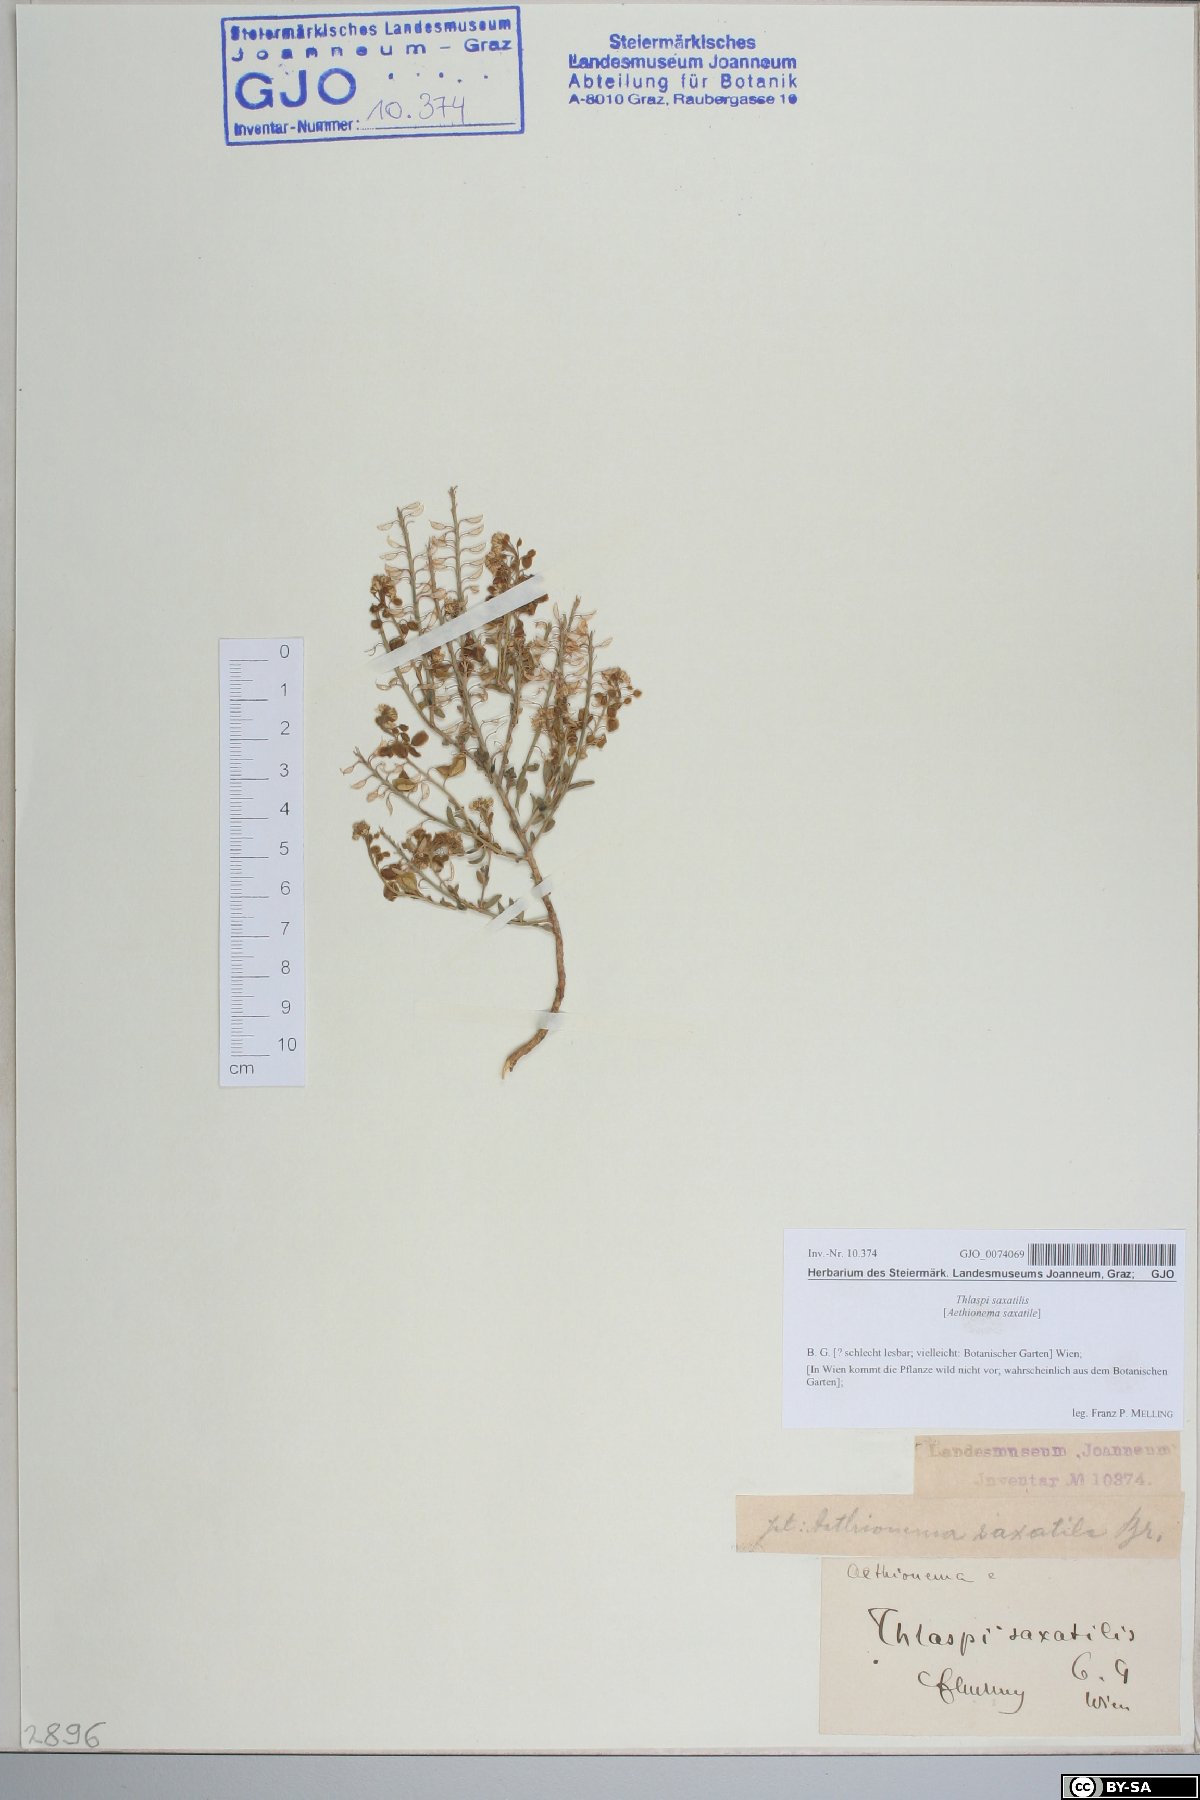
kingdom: Plantae
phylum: Tracheophyta
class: Magnoliopsida
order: Brassicales
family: Brassicaceae
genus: Aethionema
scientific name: Aethionema saxatile
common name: Burnt candytuft
